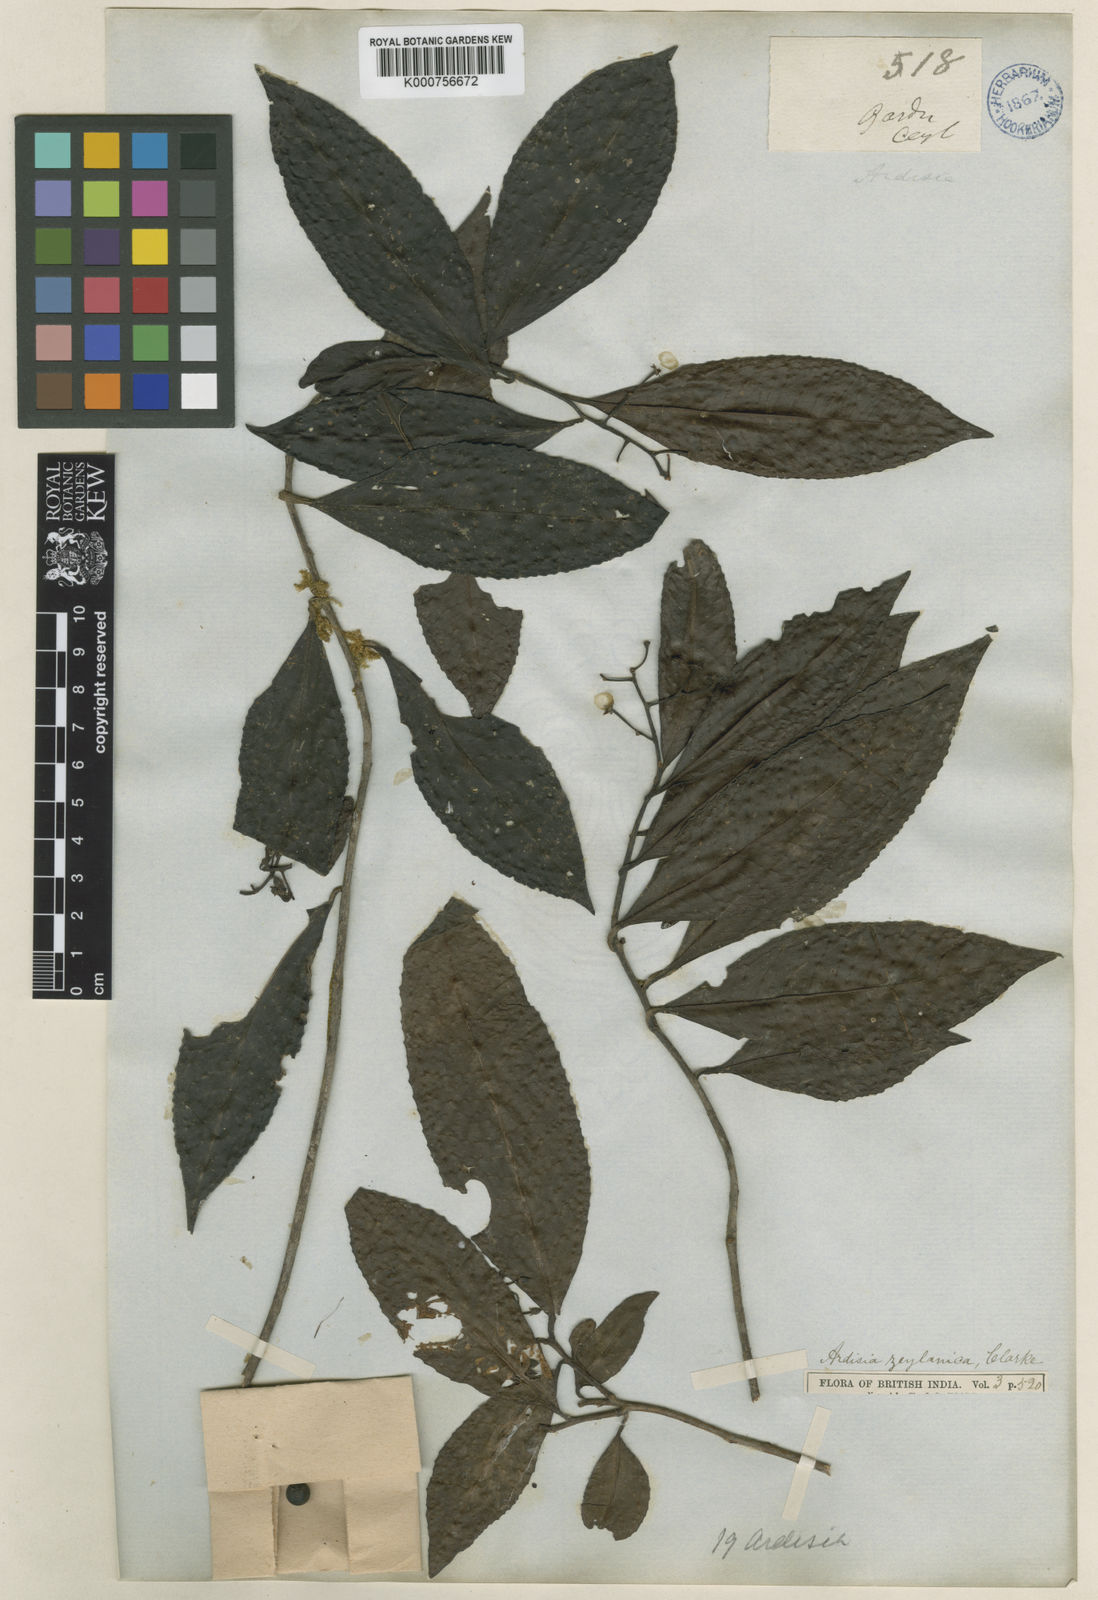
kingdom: Plantae
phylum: Tracheophyta
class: Magnoliopsida
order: Ericales
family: Primulaceae
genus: Ardisia
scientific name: Ardisia gardneri
